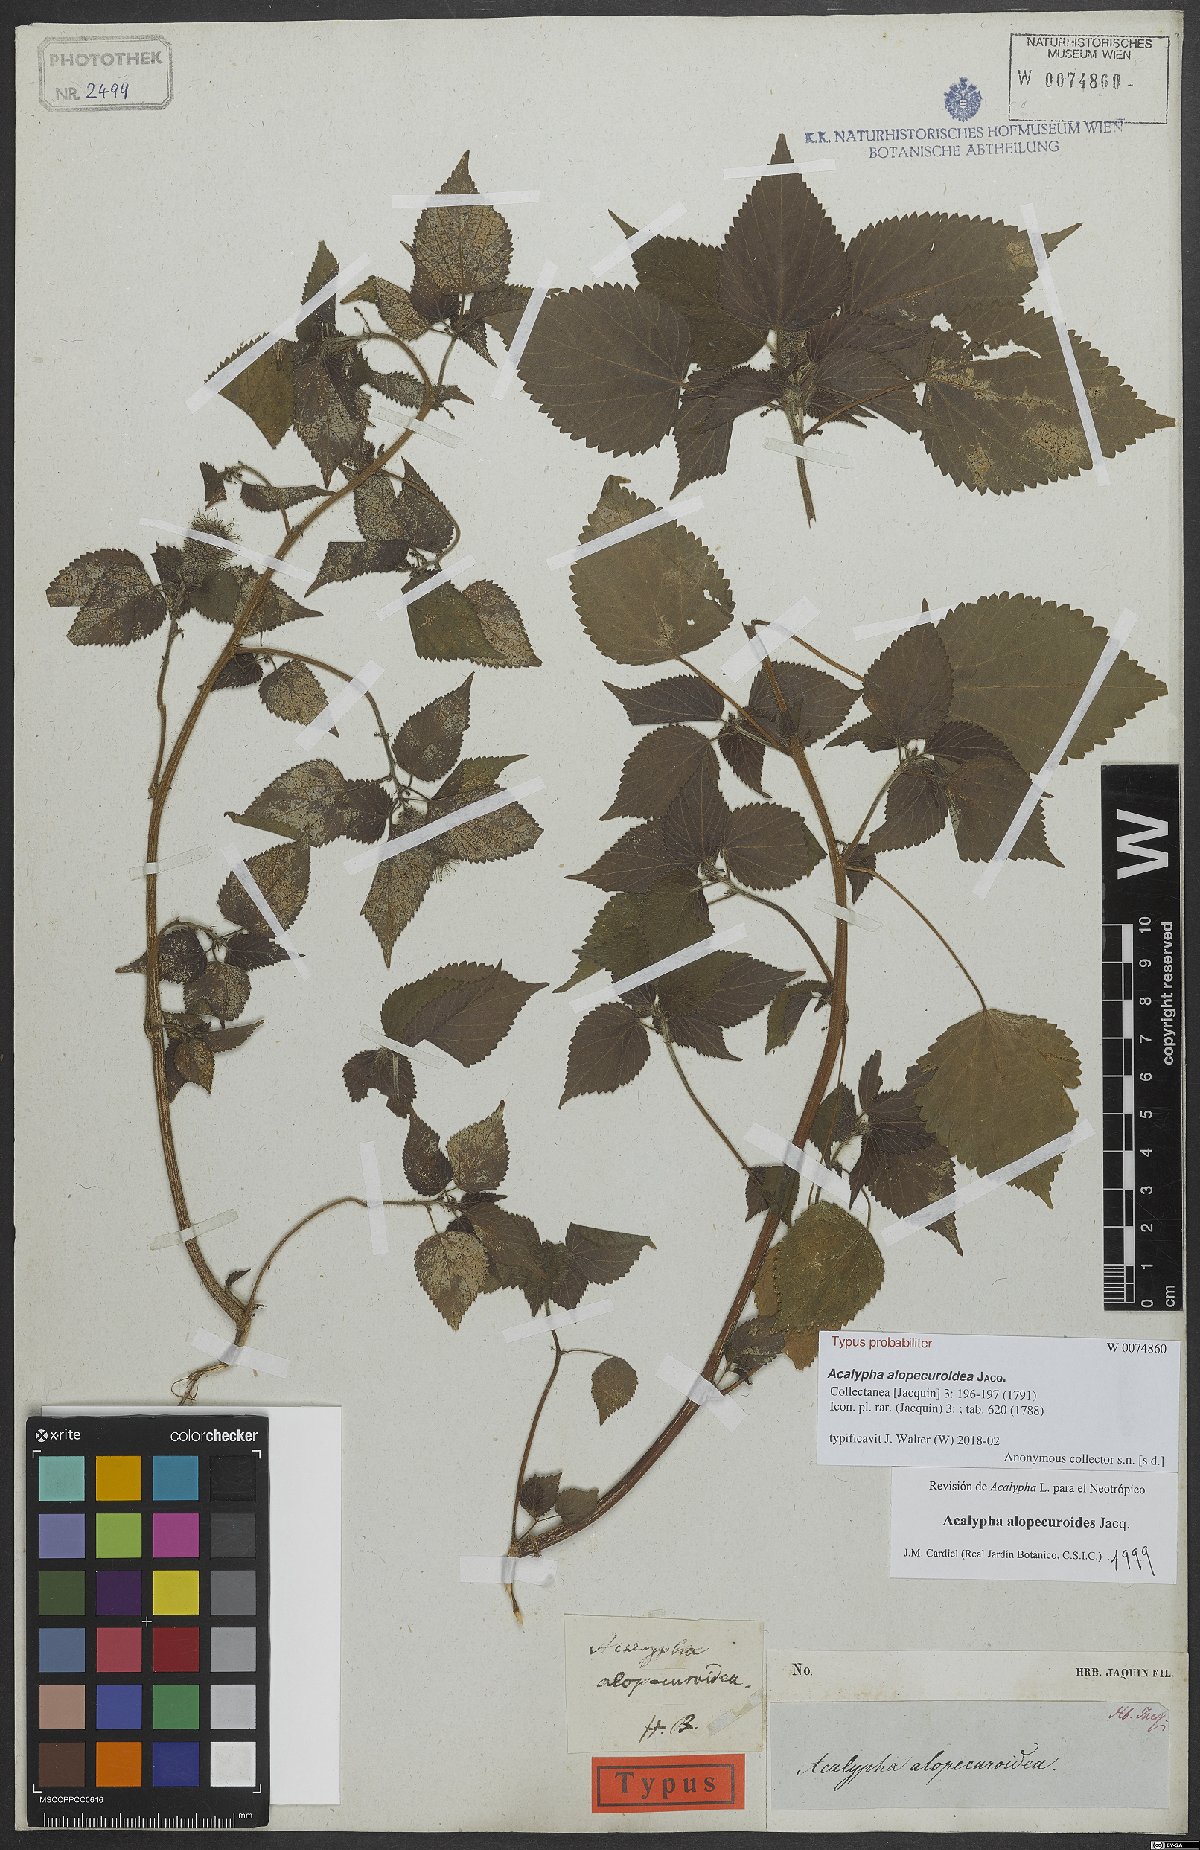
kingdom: Plantae
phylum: Tracheophyta
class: Magnoliopsida
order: Malpighiales
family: Euphorbiaceae
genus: Acalypha
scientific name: Acalypha alopecuroidea
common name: Foxtail copperleaf
